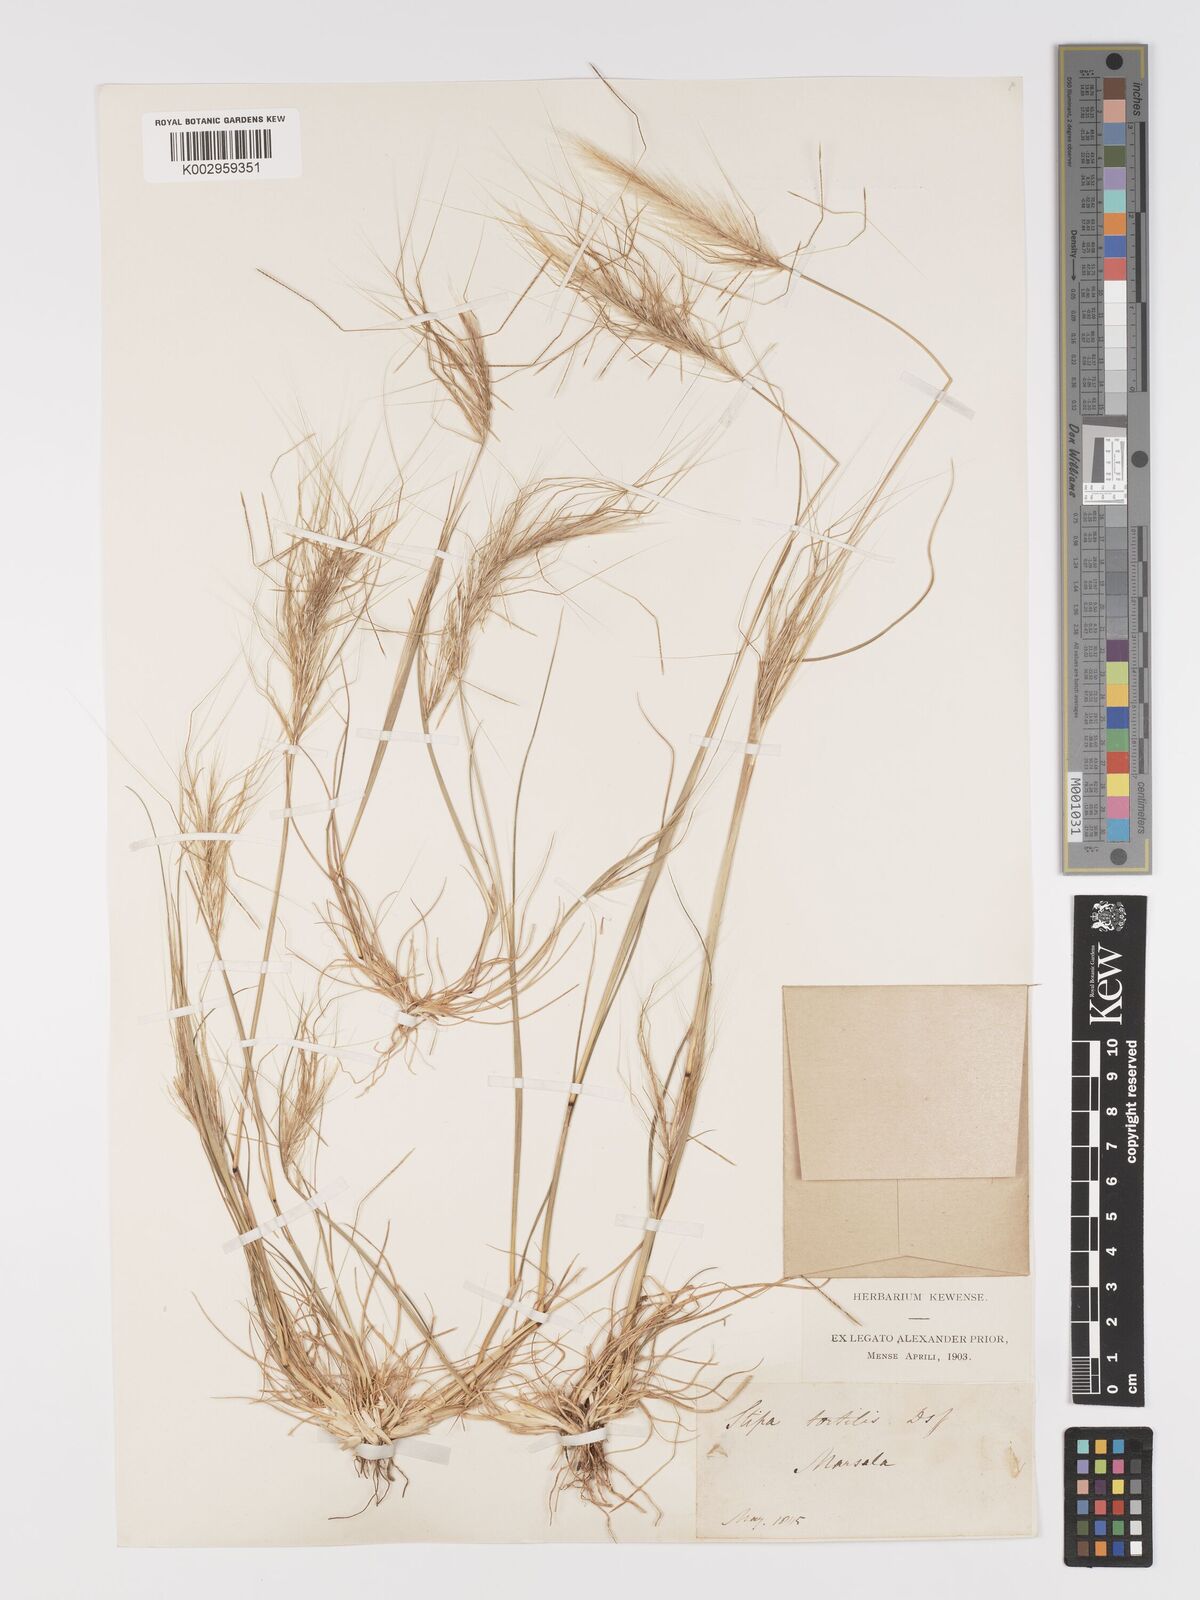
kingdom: Plantae
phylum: Tracheophyta
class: Liliopsida
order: Poales
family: Poaceae
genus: Stipellula
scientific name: Stipellula capensis
